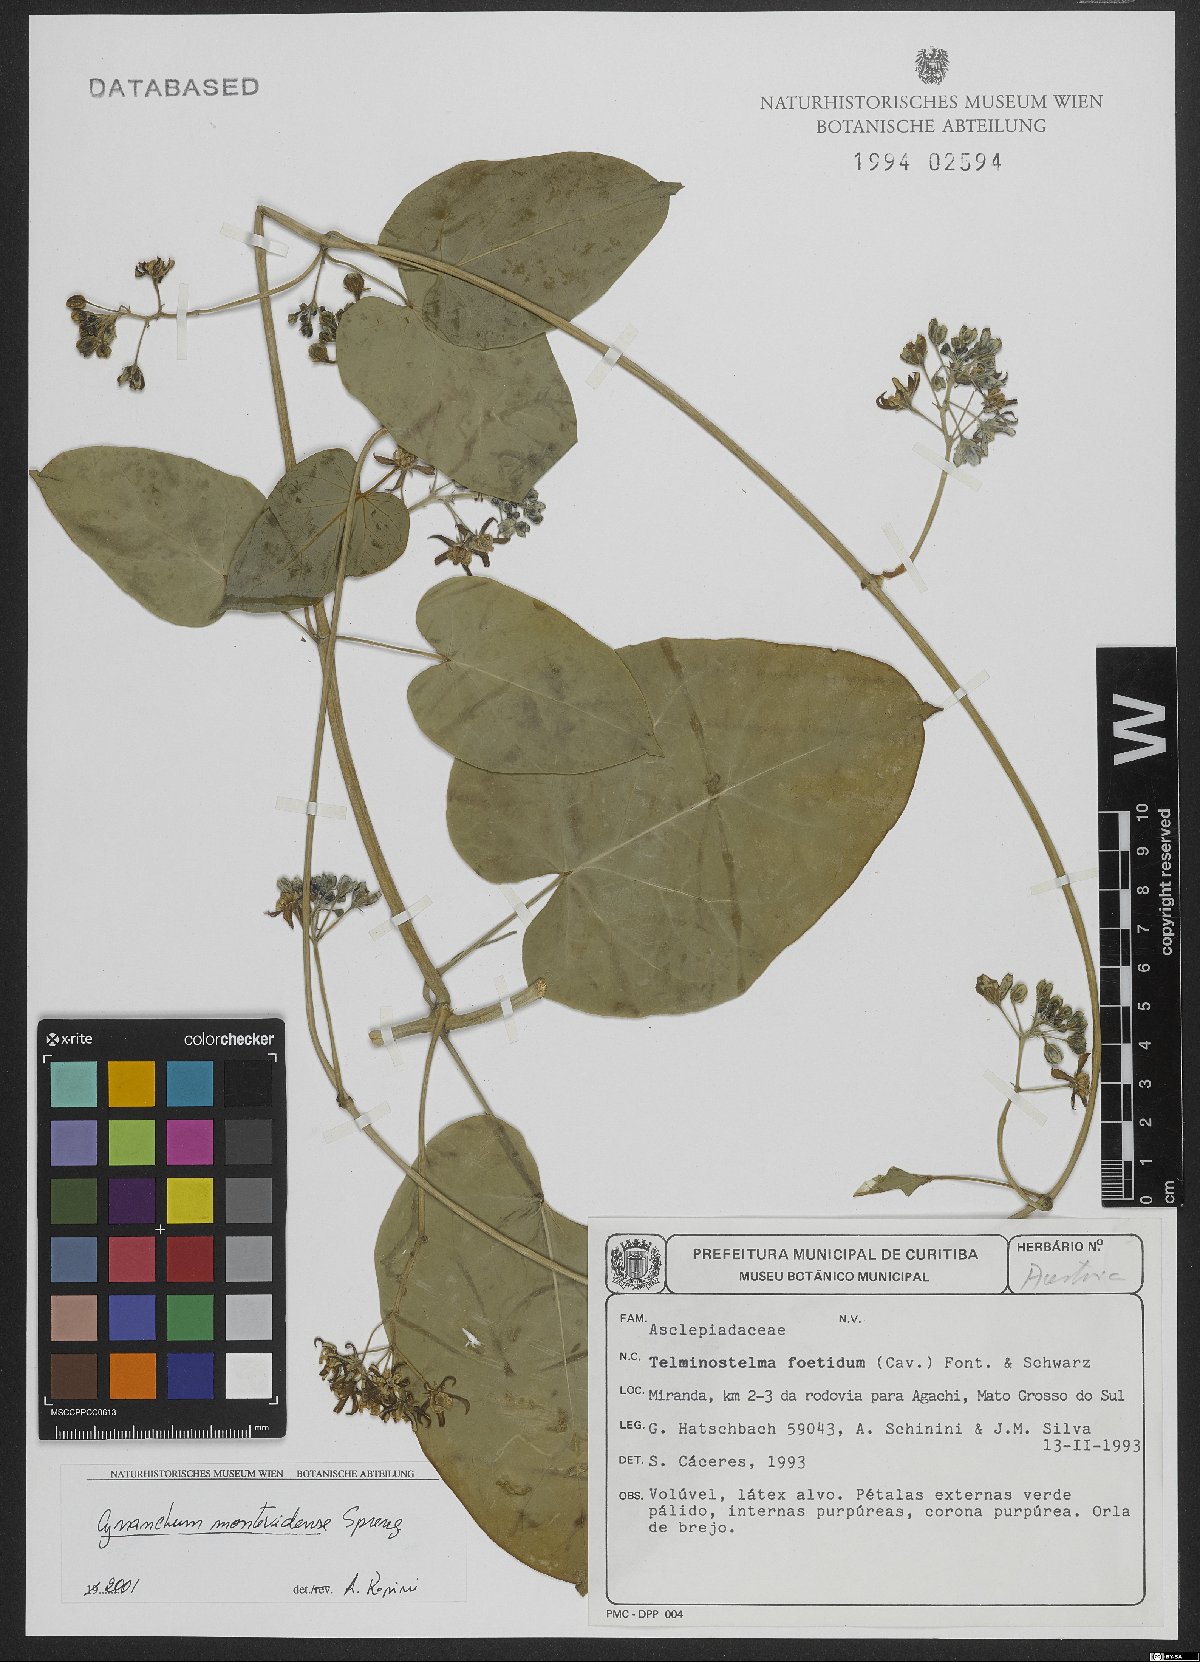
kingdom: Plantae
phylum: Tracheophyta
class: Magnoliopsida
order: Gentianales
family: Apocynaceae
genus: Cynanchum
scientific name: Cynanchum montevidense
